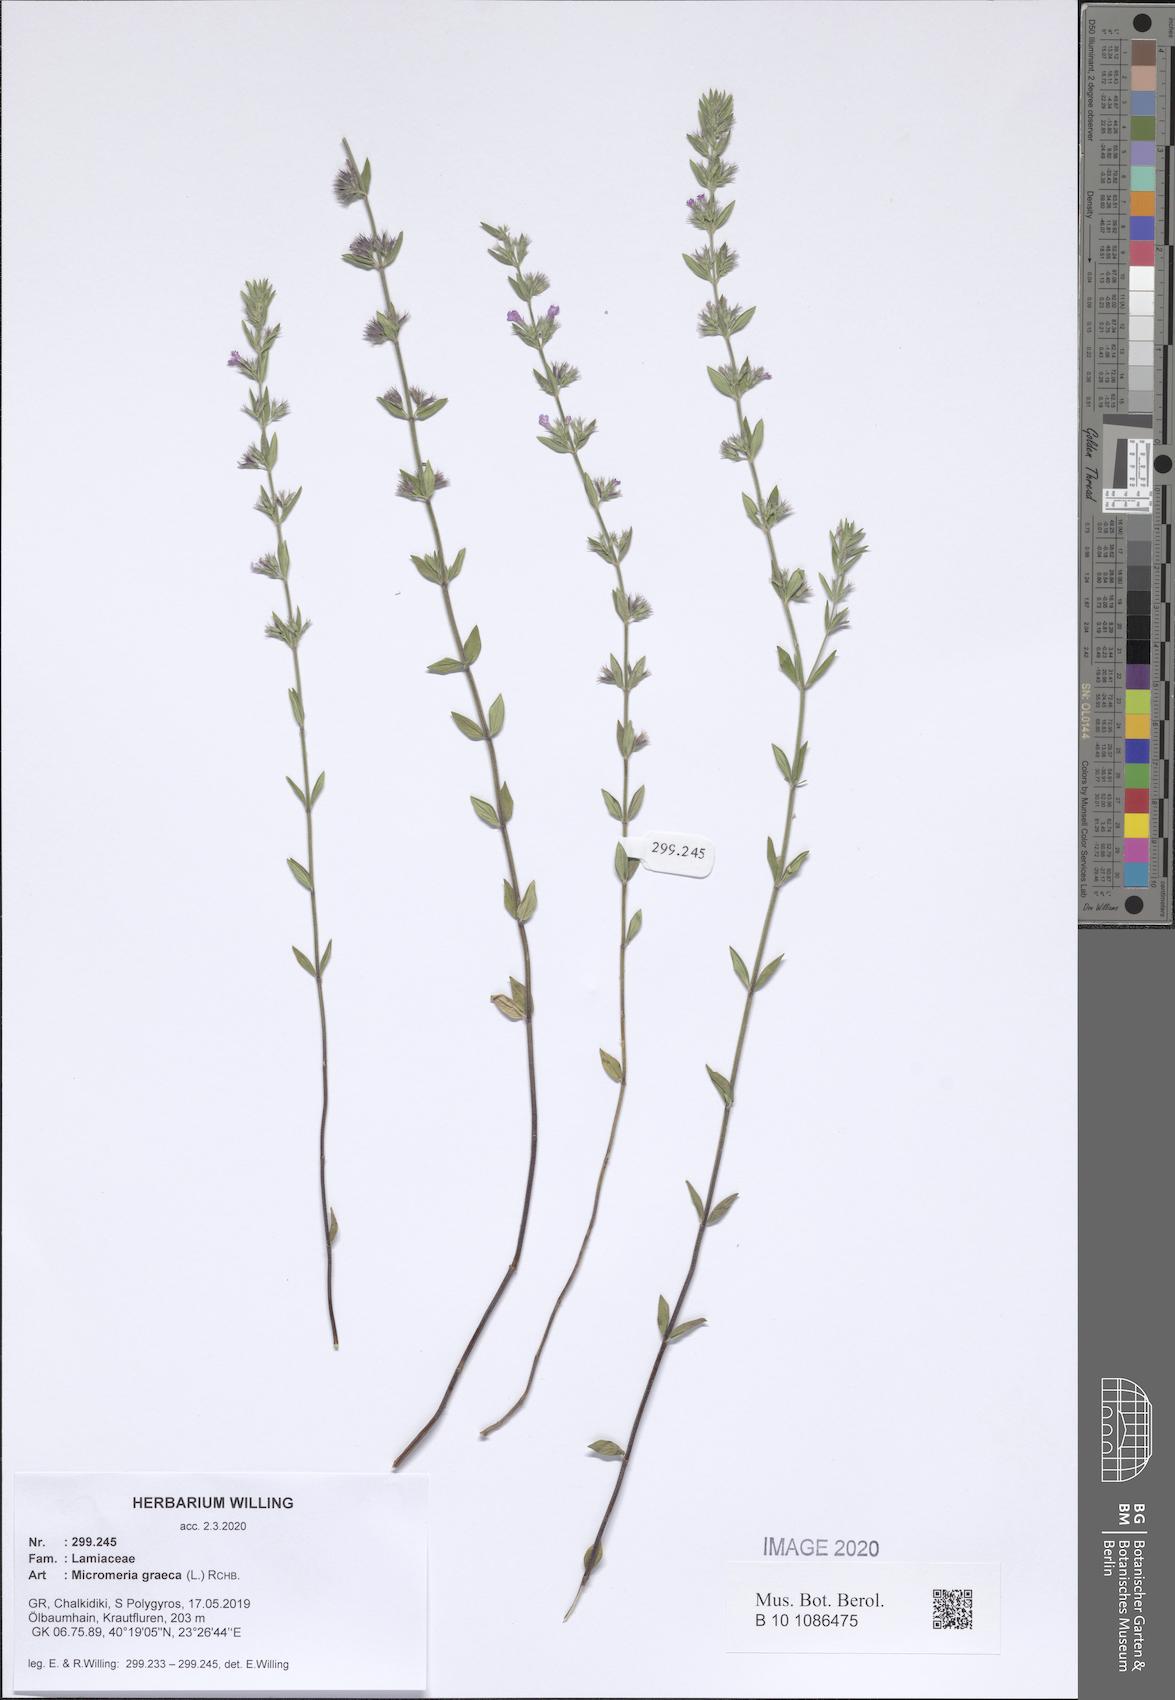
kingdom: Plantae
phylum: Tracheophyta
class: Magnoliopsida
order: Lamiales
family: Lamiaceae
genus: Micromeria
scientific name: Micromeria graeca
